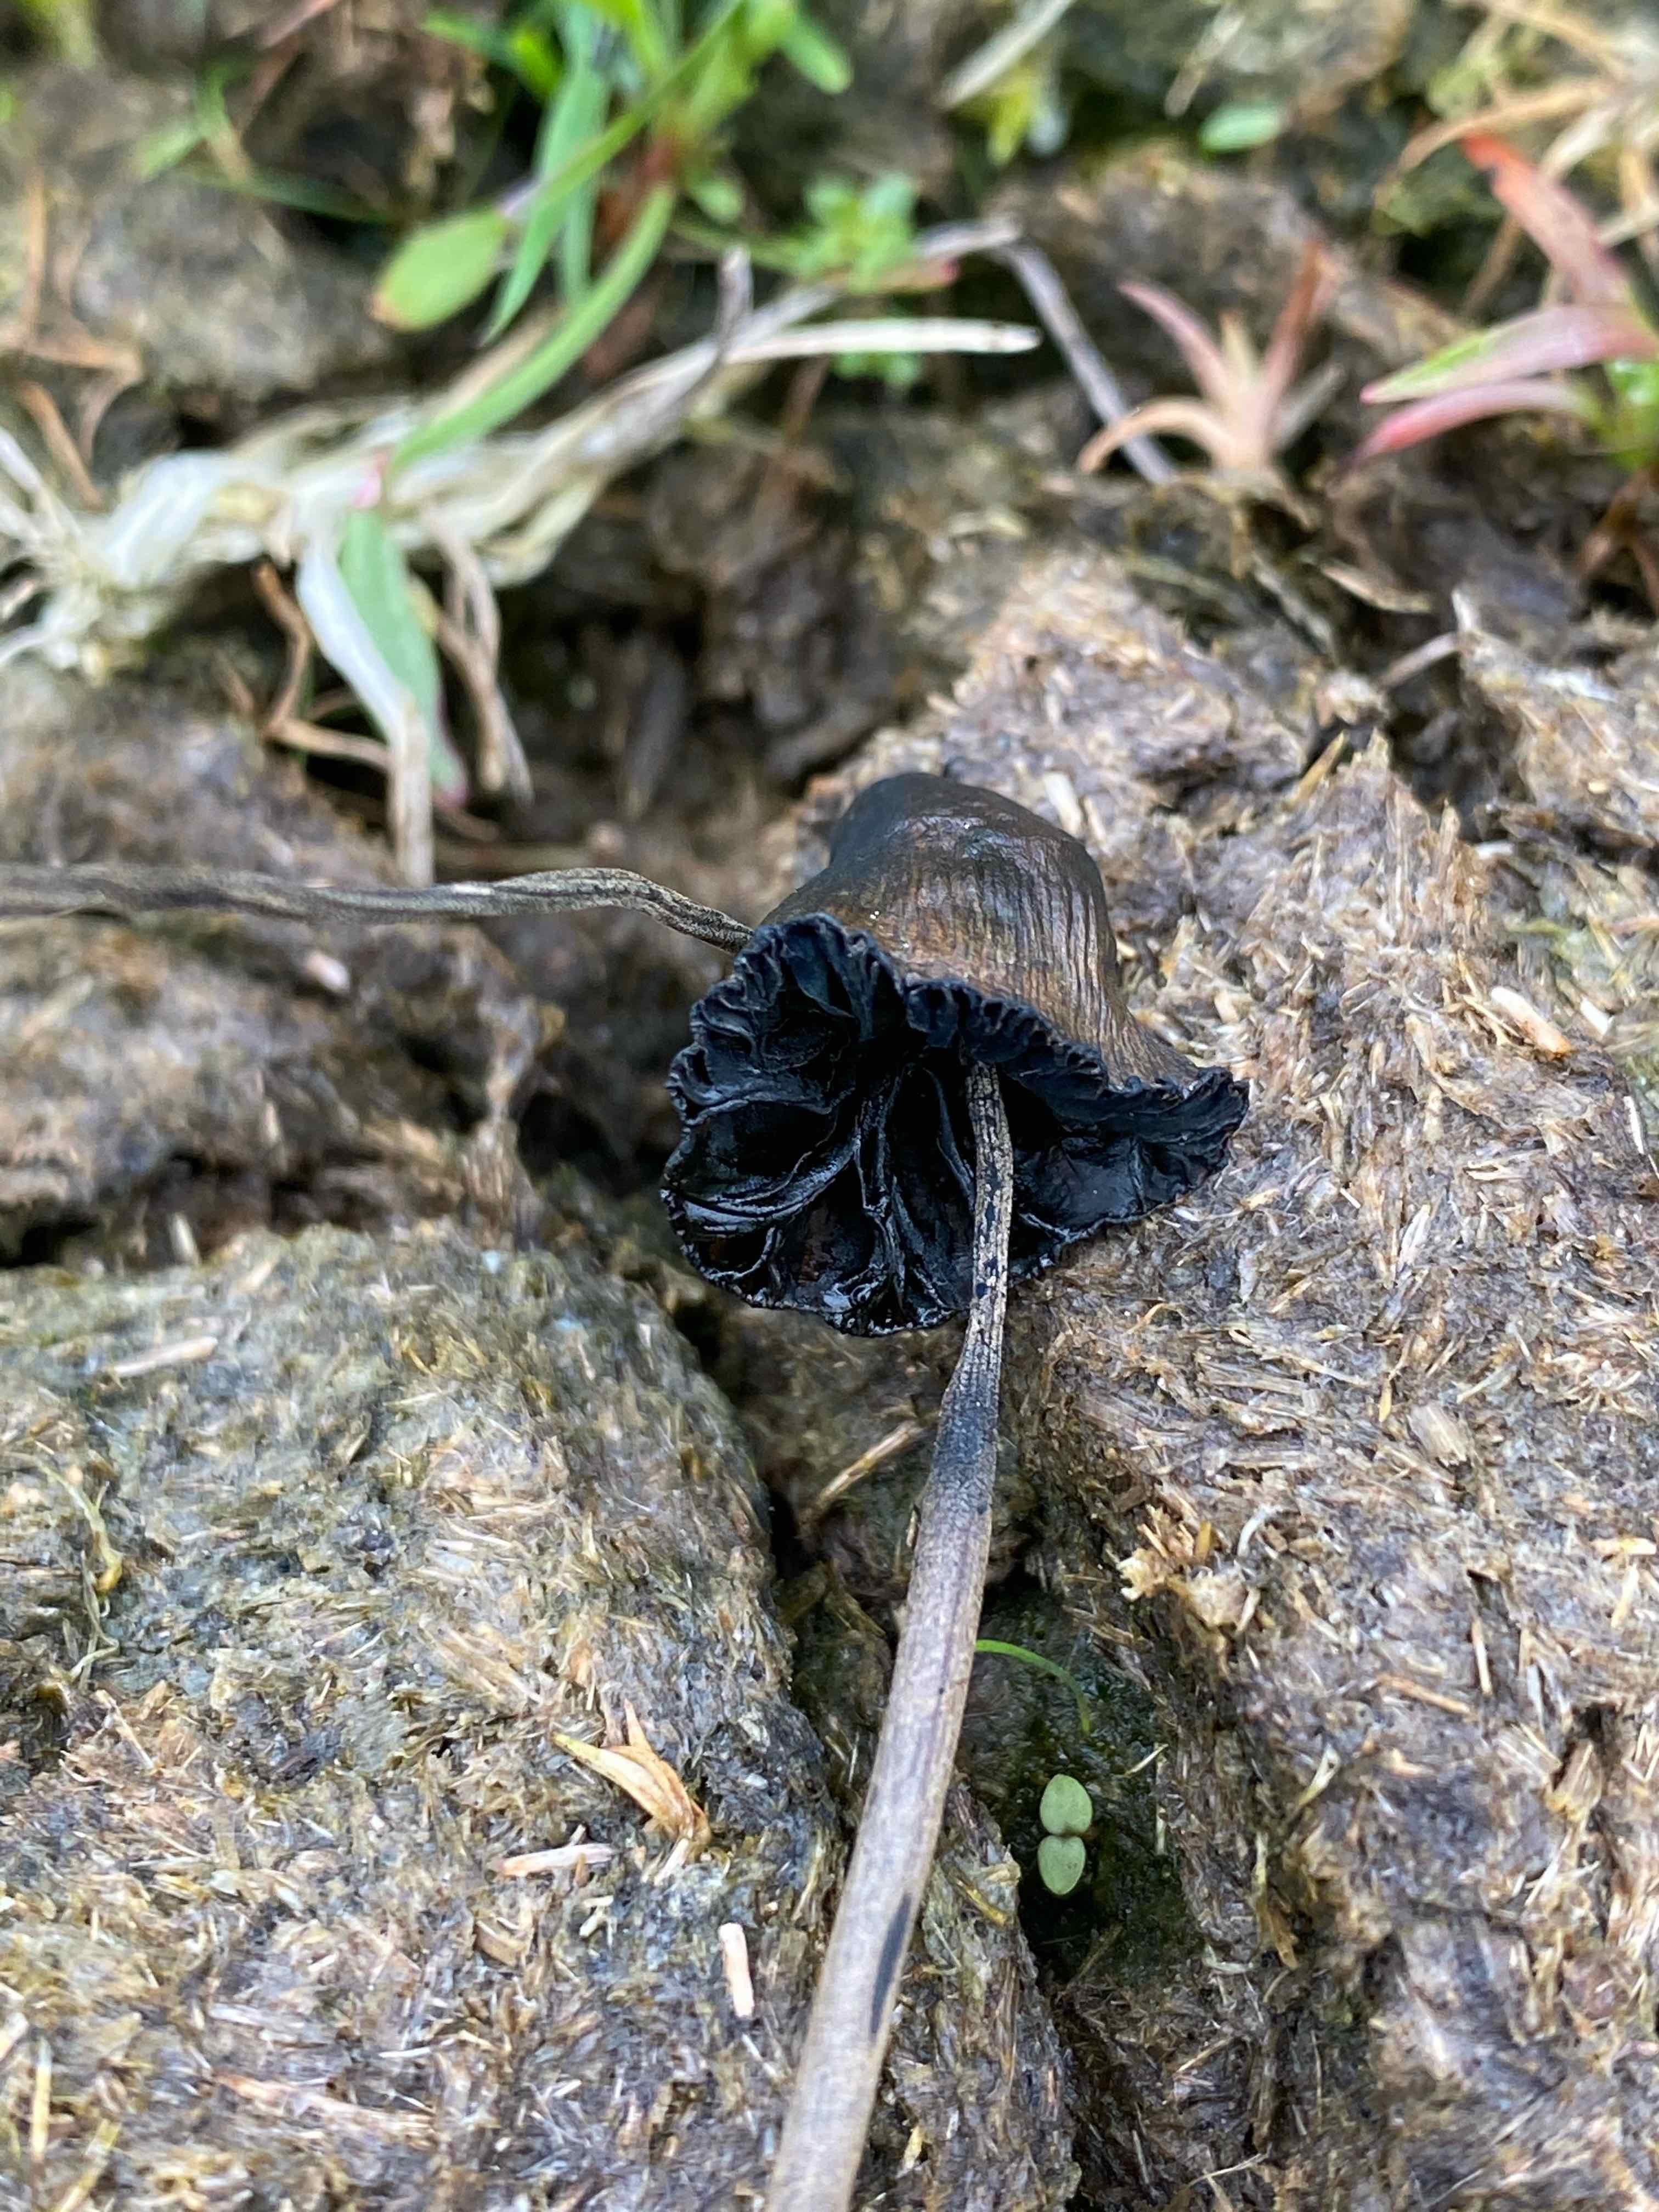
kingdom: Fungi
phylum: Basidiomycota
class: Agaricomycetes
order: Agaricales
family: Bolbitiaceae
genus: Panaeolus
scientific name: Panaeolus
